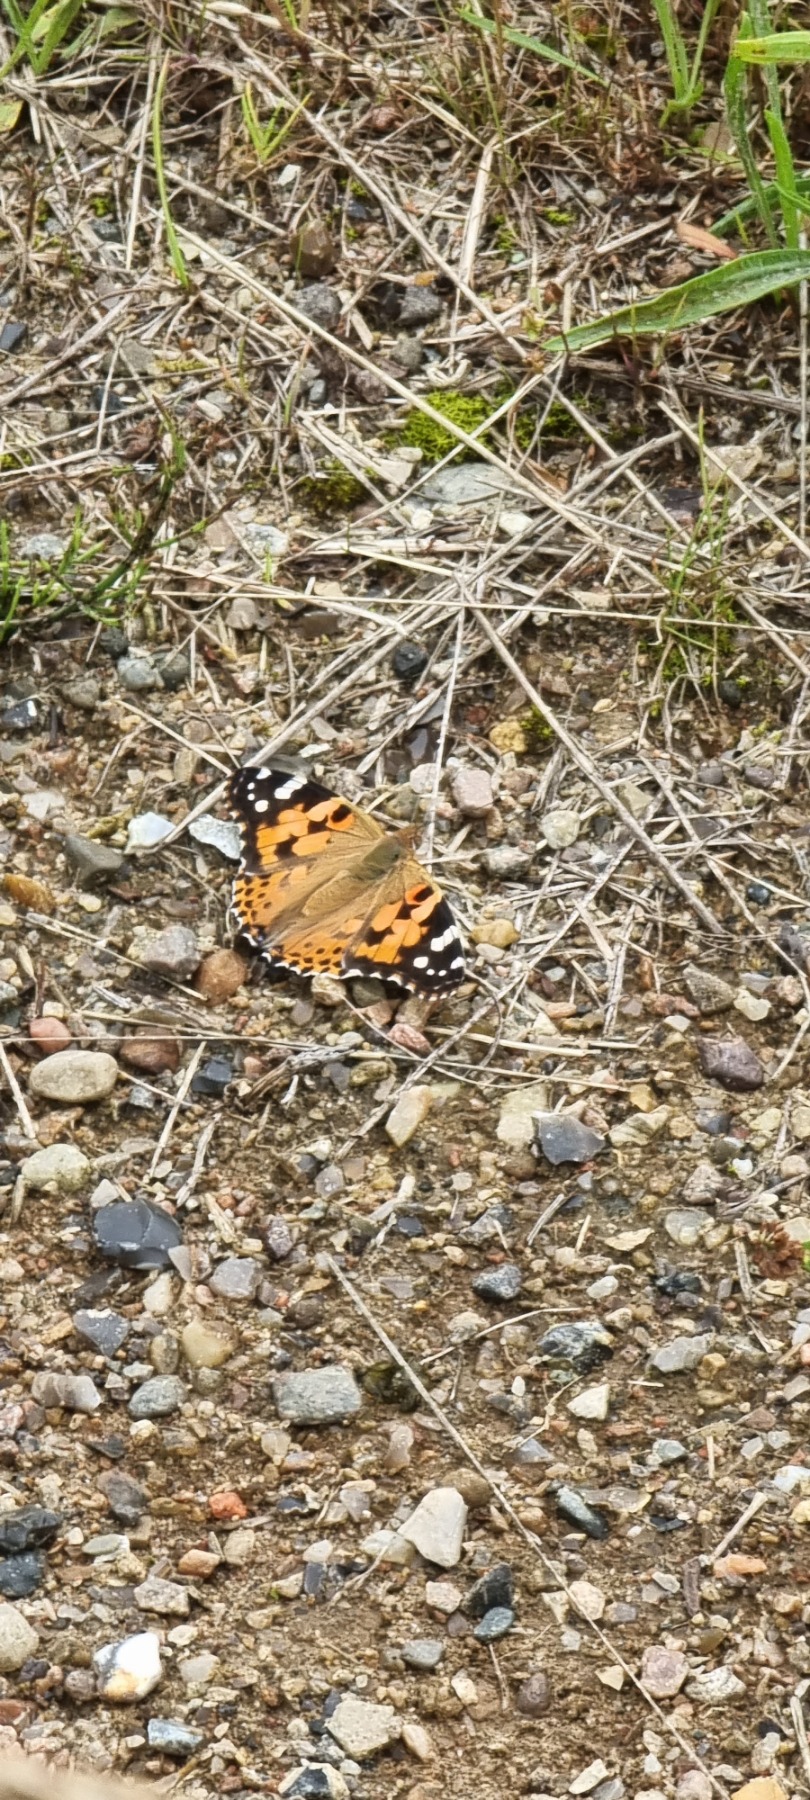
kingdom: Animalia
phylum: Arthropoda
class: Insecta
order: Lepidoptera
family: Nymphalidae
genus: Vanessa
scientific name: Vanessa cardui
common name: Tidselsommerfugl
